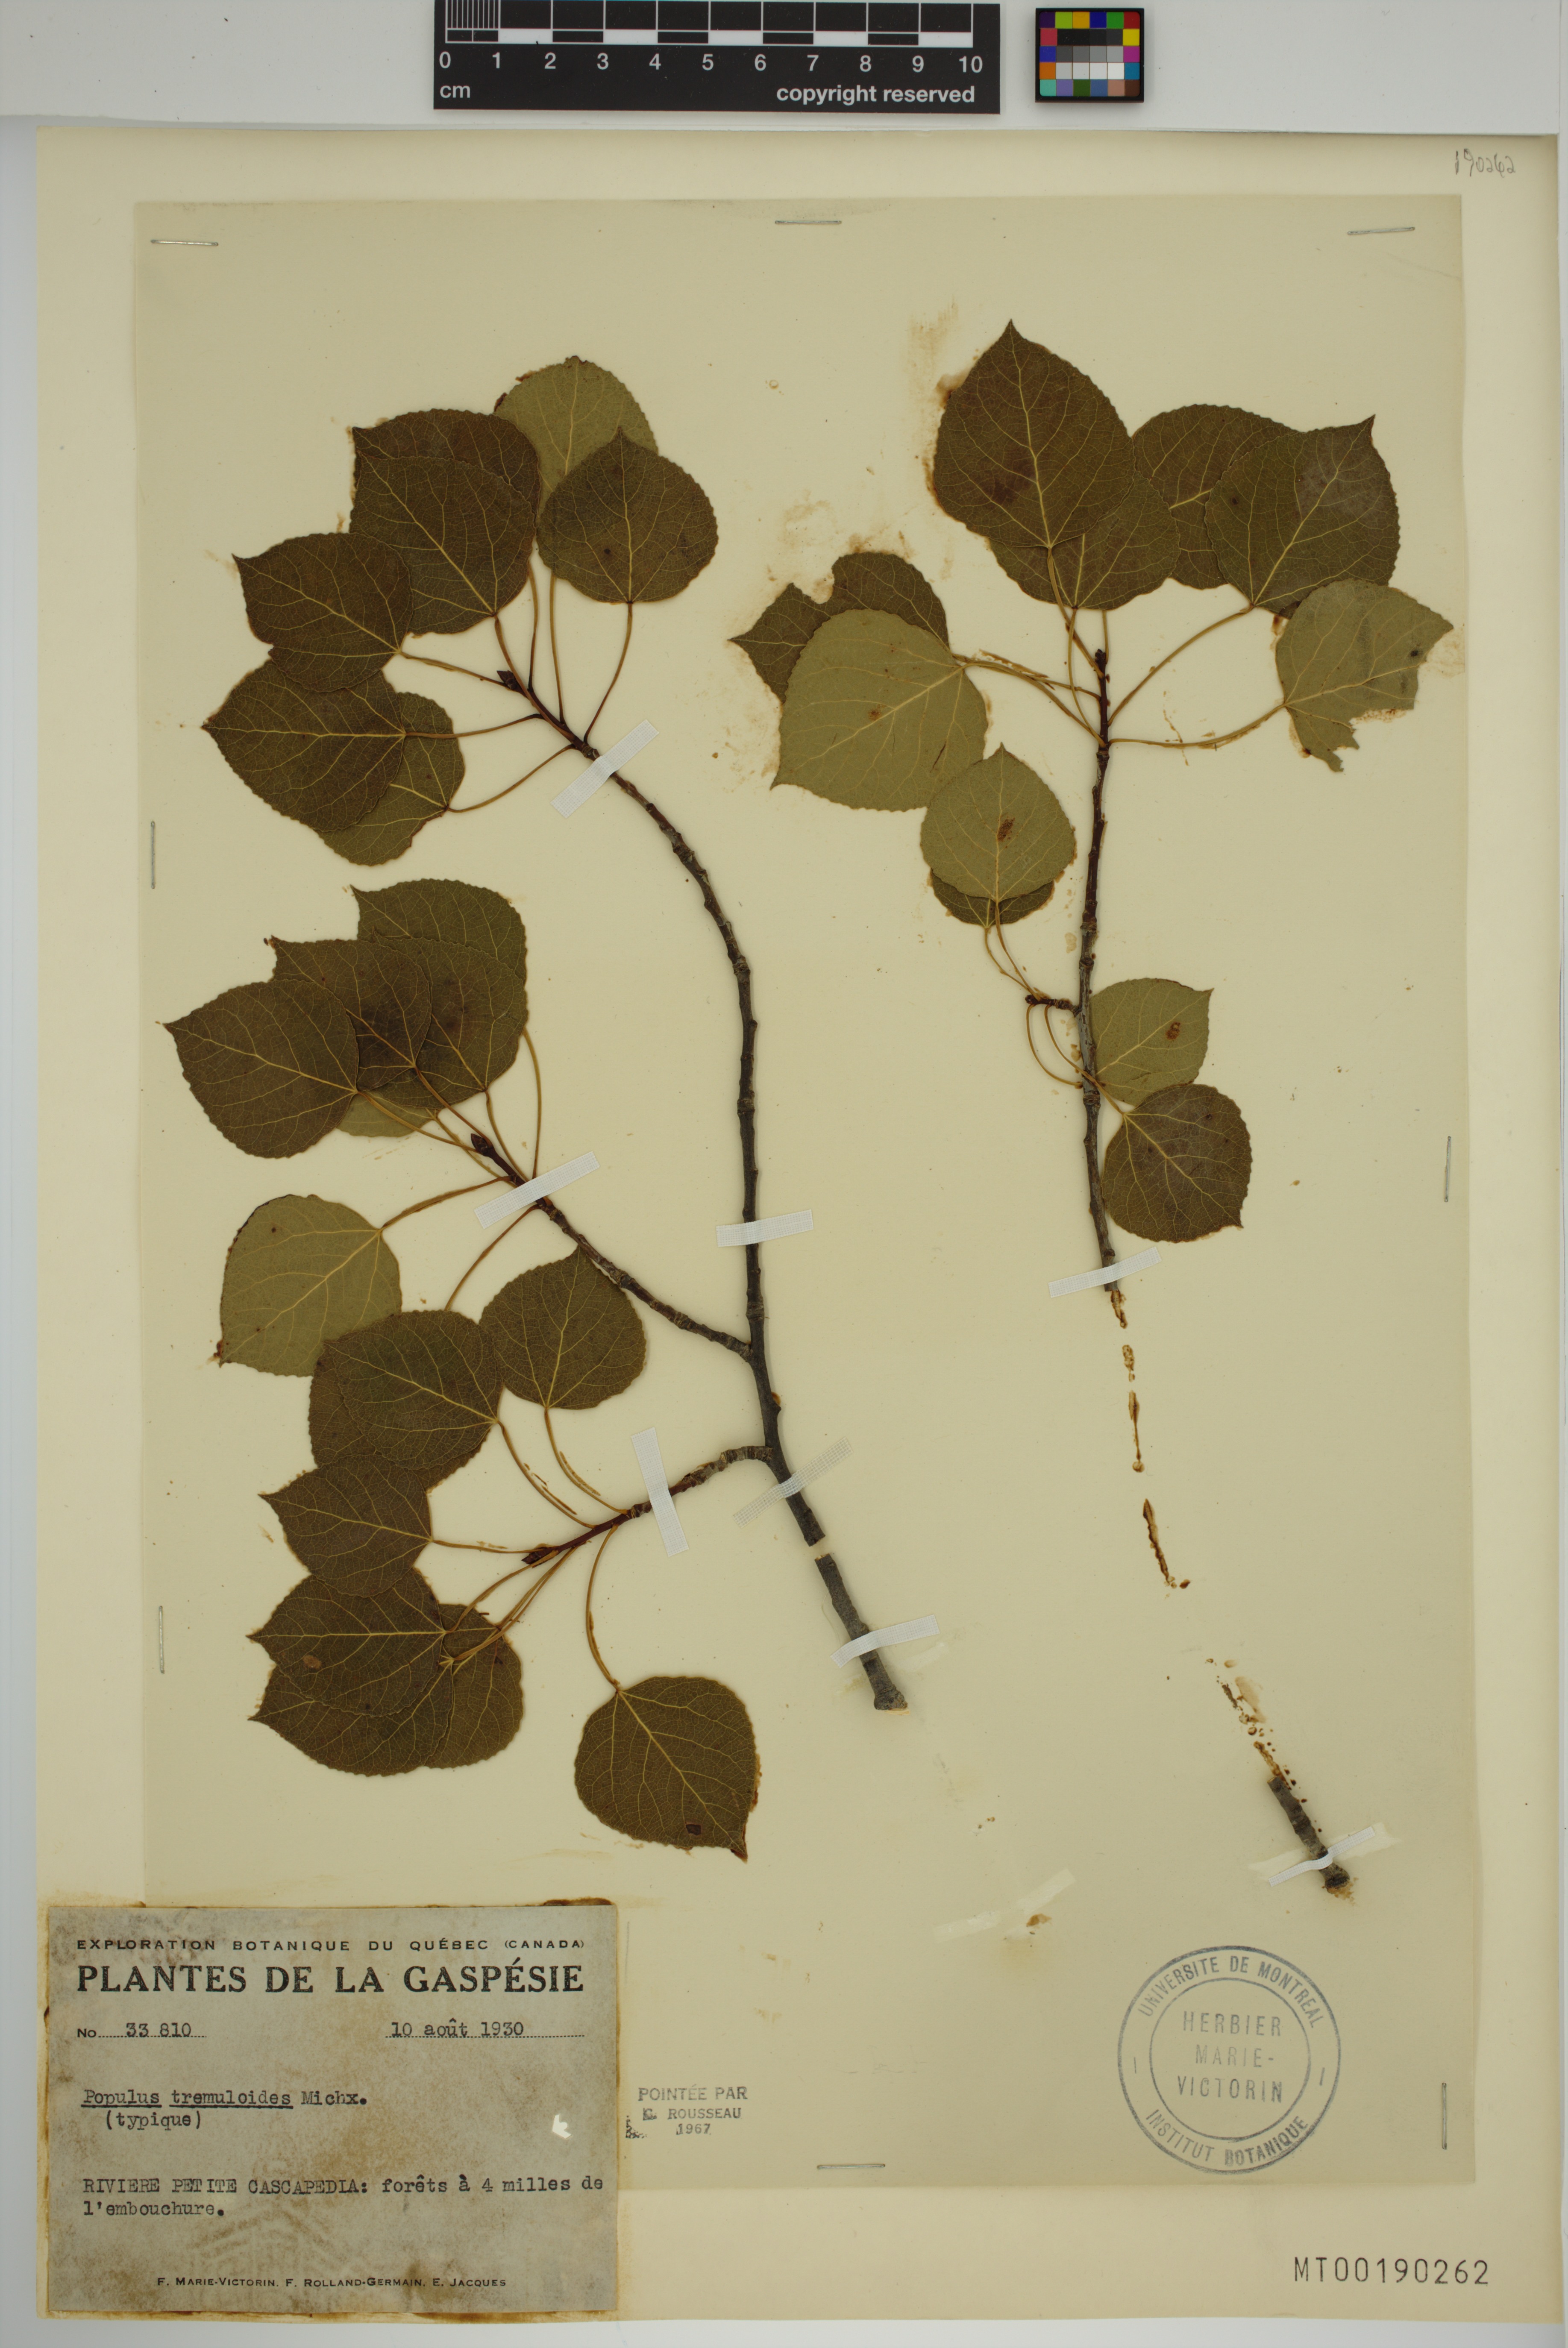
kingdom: Plantae
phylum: Tracheophyta
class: Magnoliopsida
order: Malpighiales
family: Salicaceae
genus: Populus
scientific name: Populus tremuloides
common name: Quaking aspen
